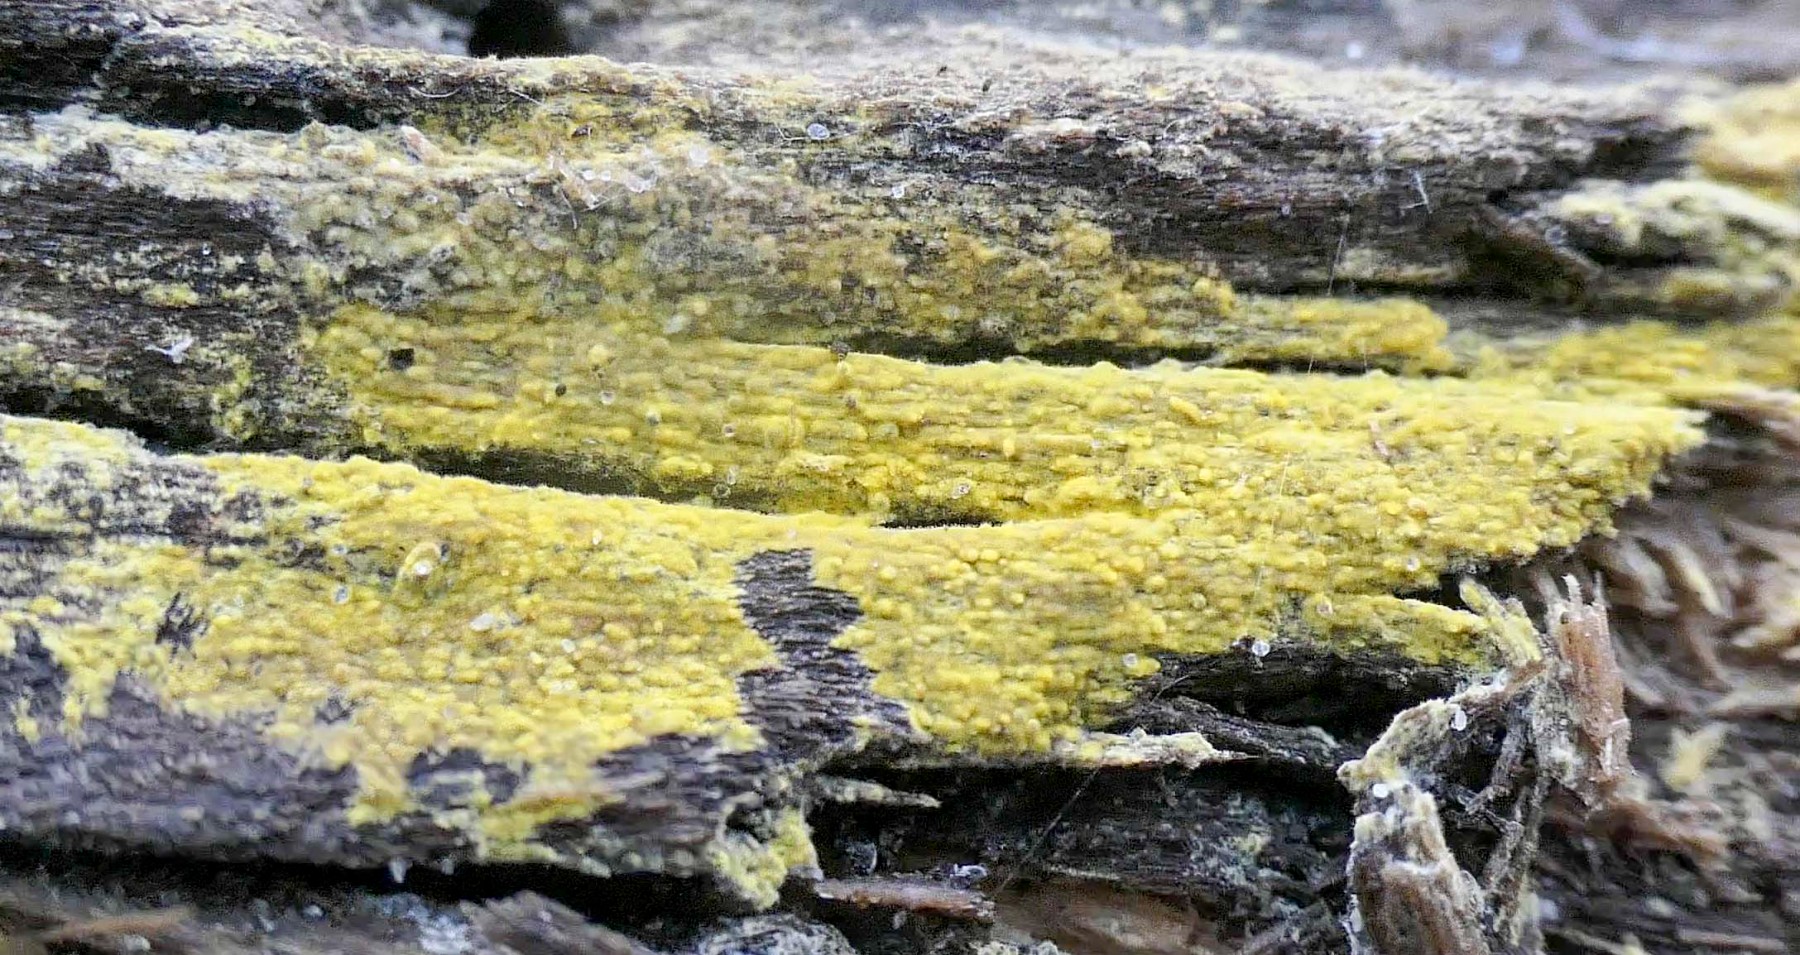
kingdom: Fungi
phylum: Basidiomycota
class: Agaricomycetes
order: Polyporales
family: Meruliaceae
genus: Phlebiodontia
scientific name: Phlebiodontia subochracea
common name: svovl-åresvamp
